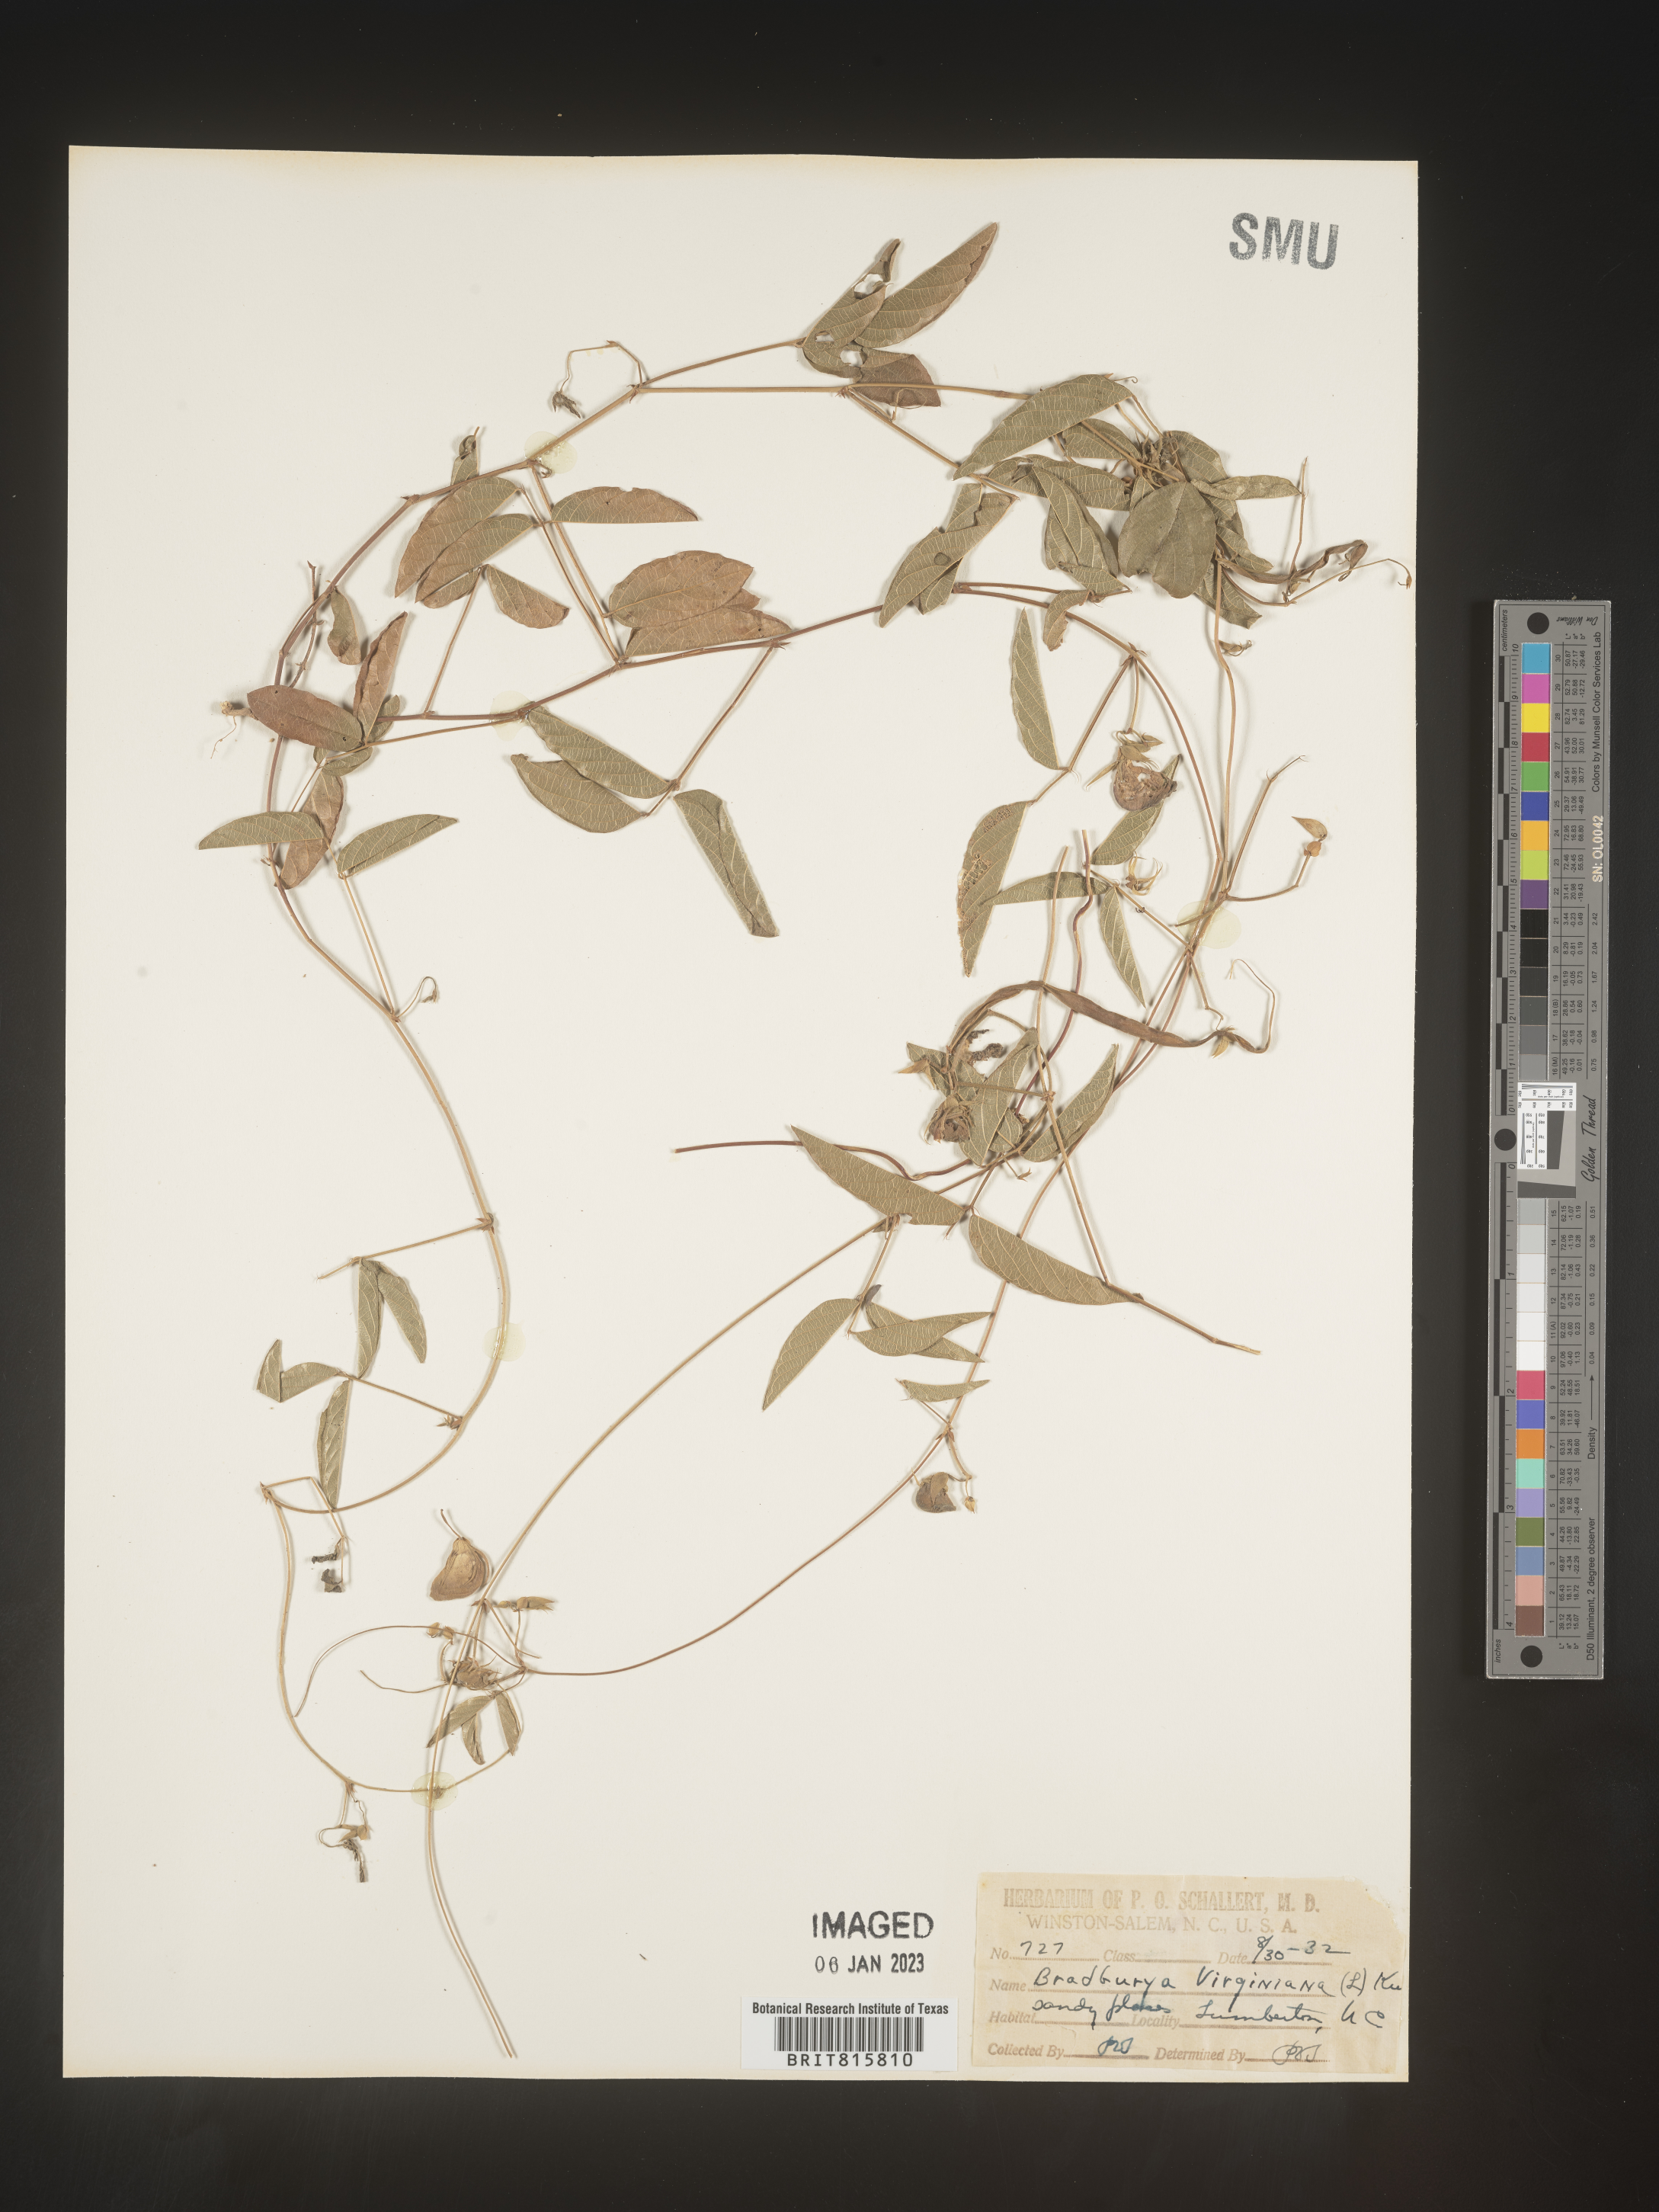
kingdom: Plantae
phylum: Tracheophyta
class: Magnoliopsida
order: Fabales
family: Fabaceae
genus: Centrosema
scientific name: Centrosema virginianum
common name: Butterfly-pea
